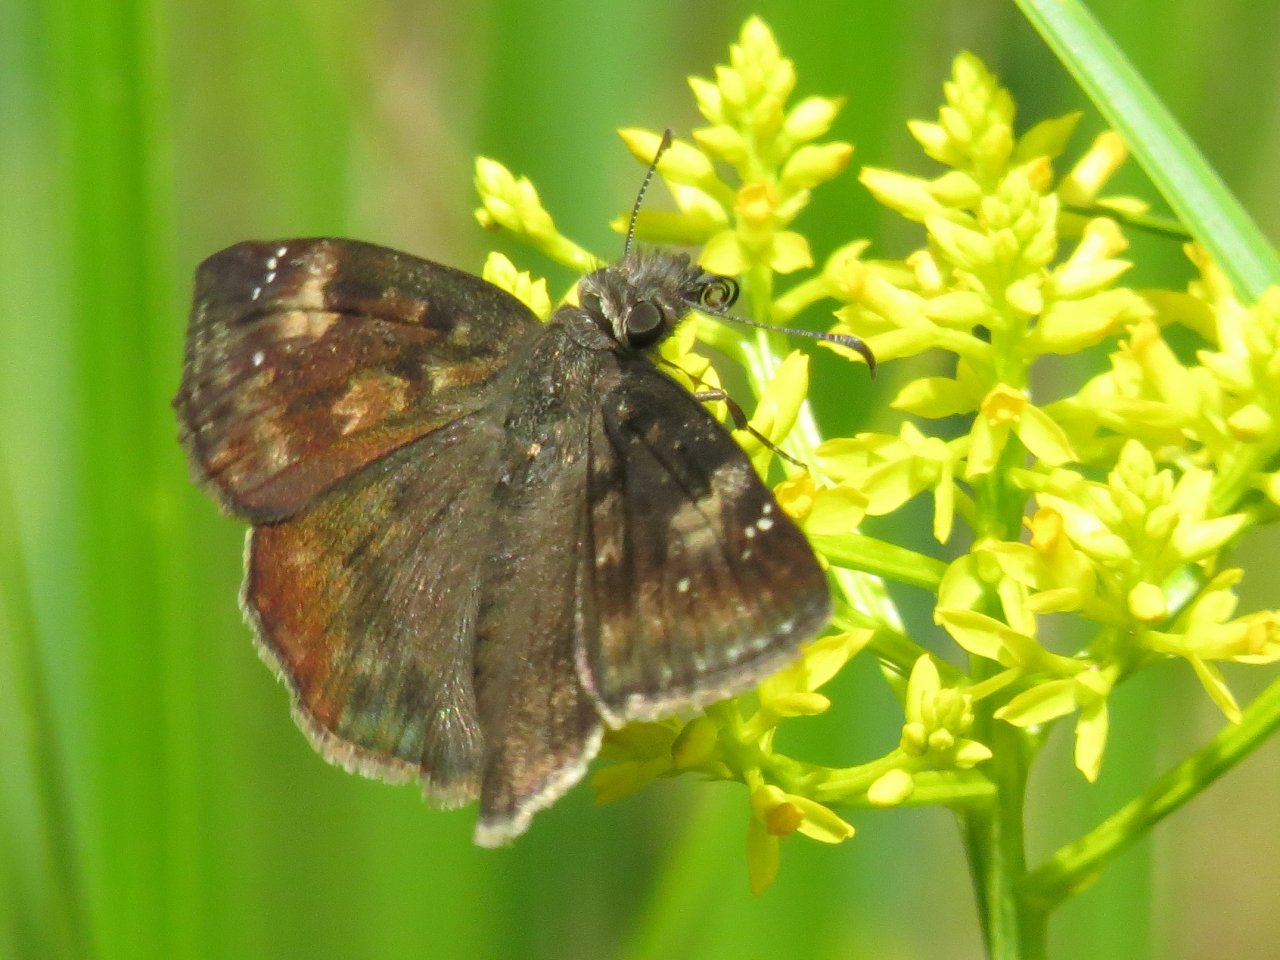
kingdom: Animalia
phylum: Arthropoda
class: Insecta
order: Lepidoptera
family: Hesperiidae
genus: Erynnis
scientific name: Erynnis zarucco
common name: Zarucco Duskywing
